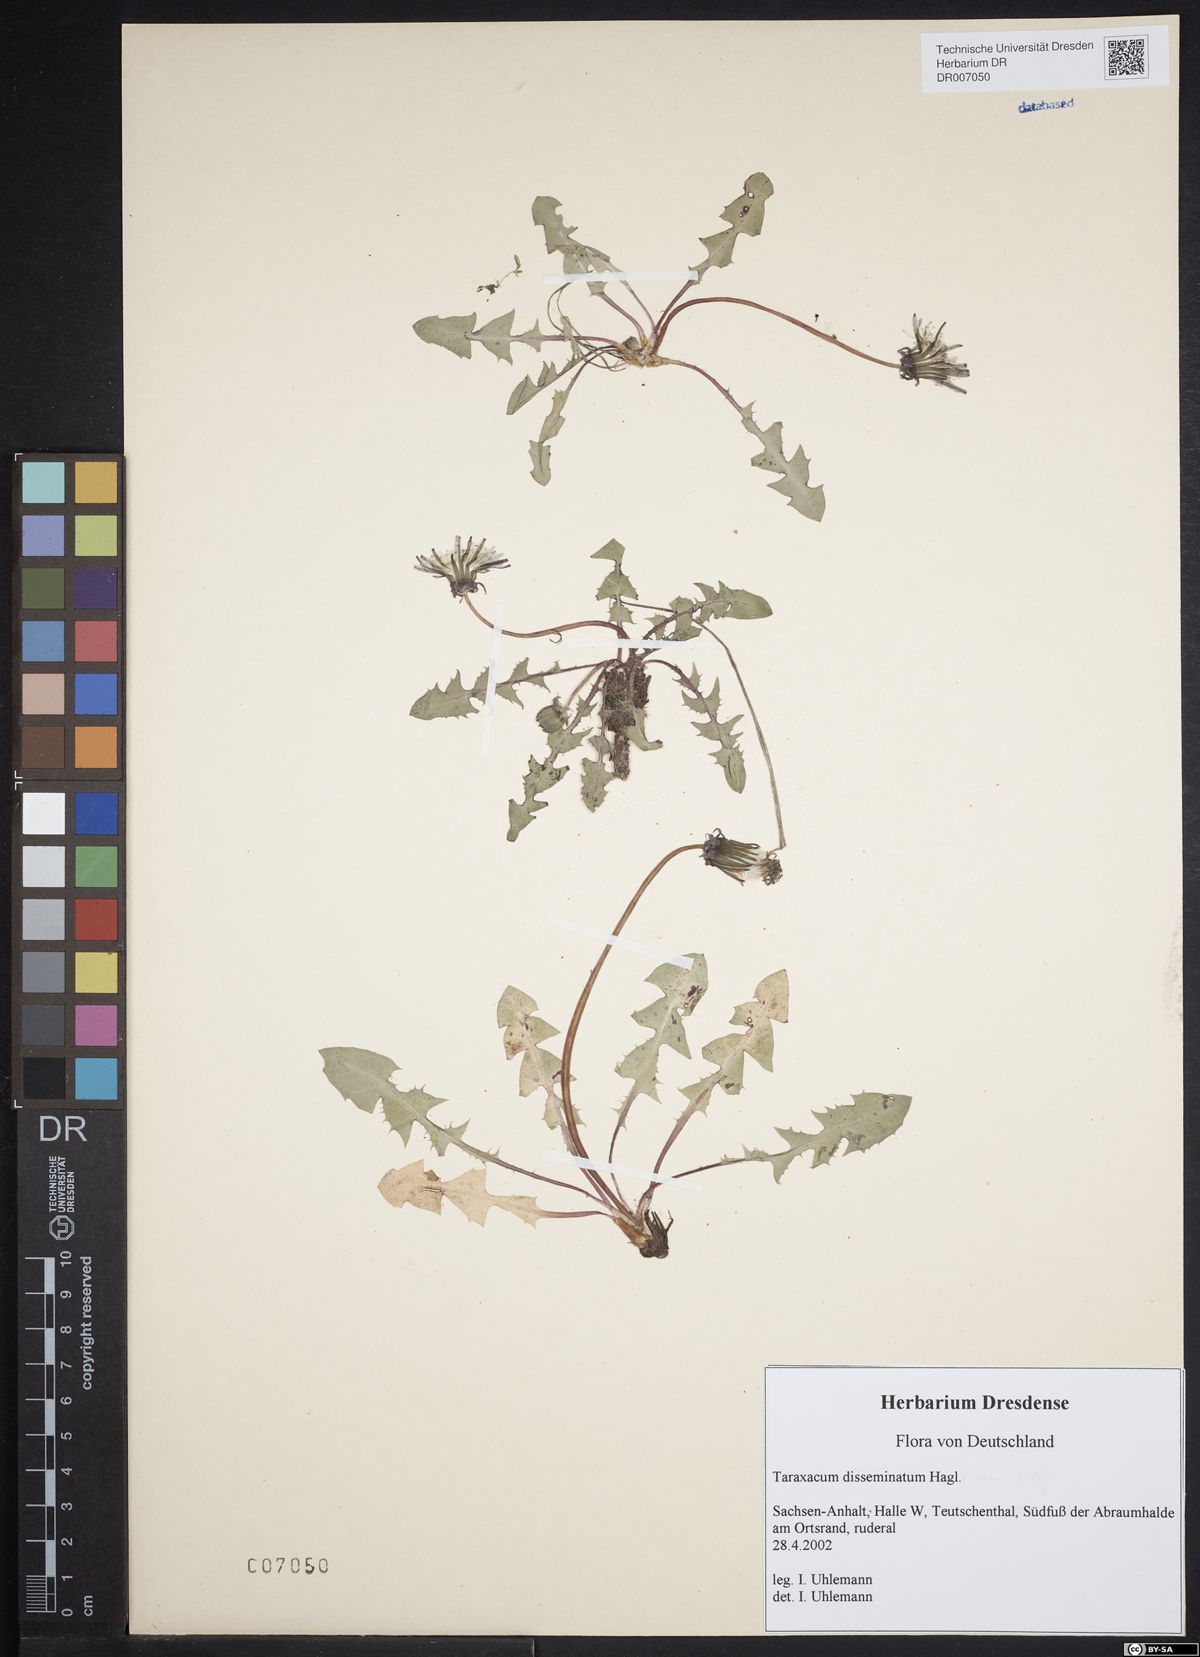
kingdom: Plantae
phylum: Tracheophyta
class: Magnoliopsida
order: Asterales
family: Asteraceae
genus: Taraxacum
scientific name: Taraxacum disseminatum
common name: Golden-fruited dandelion
